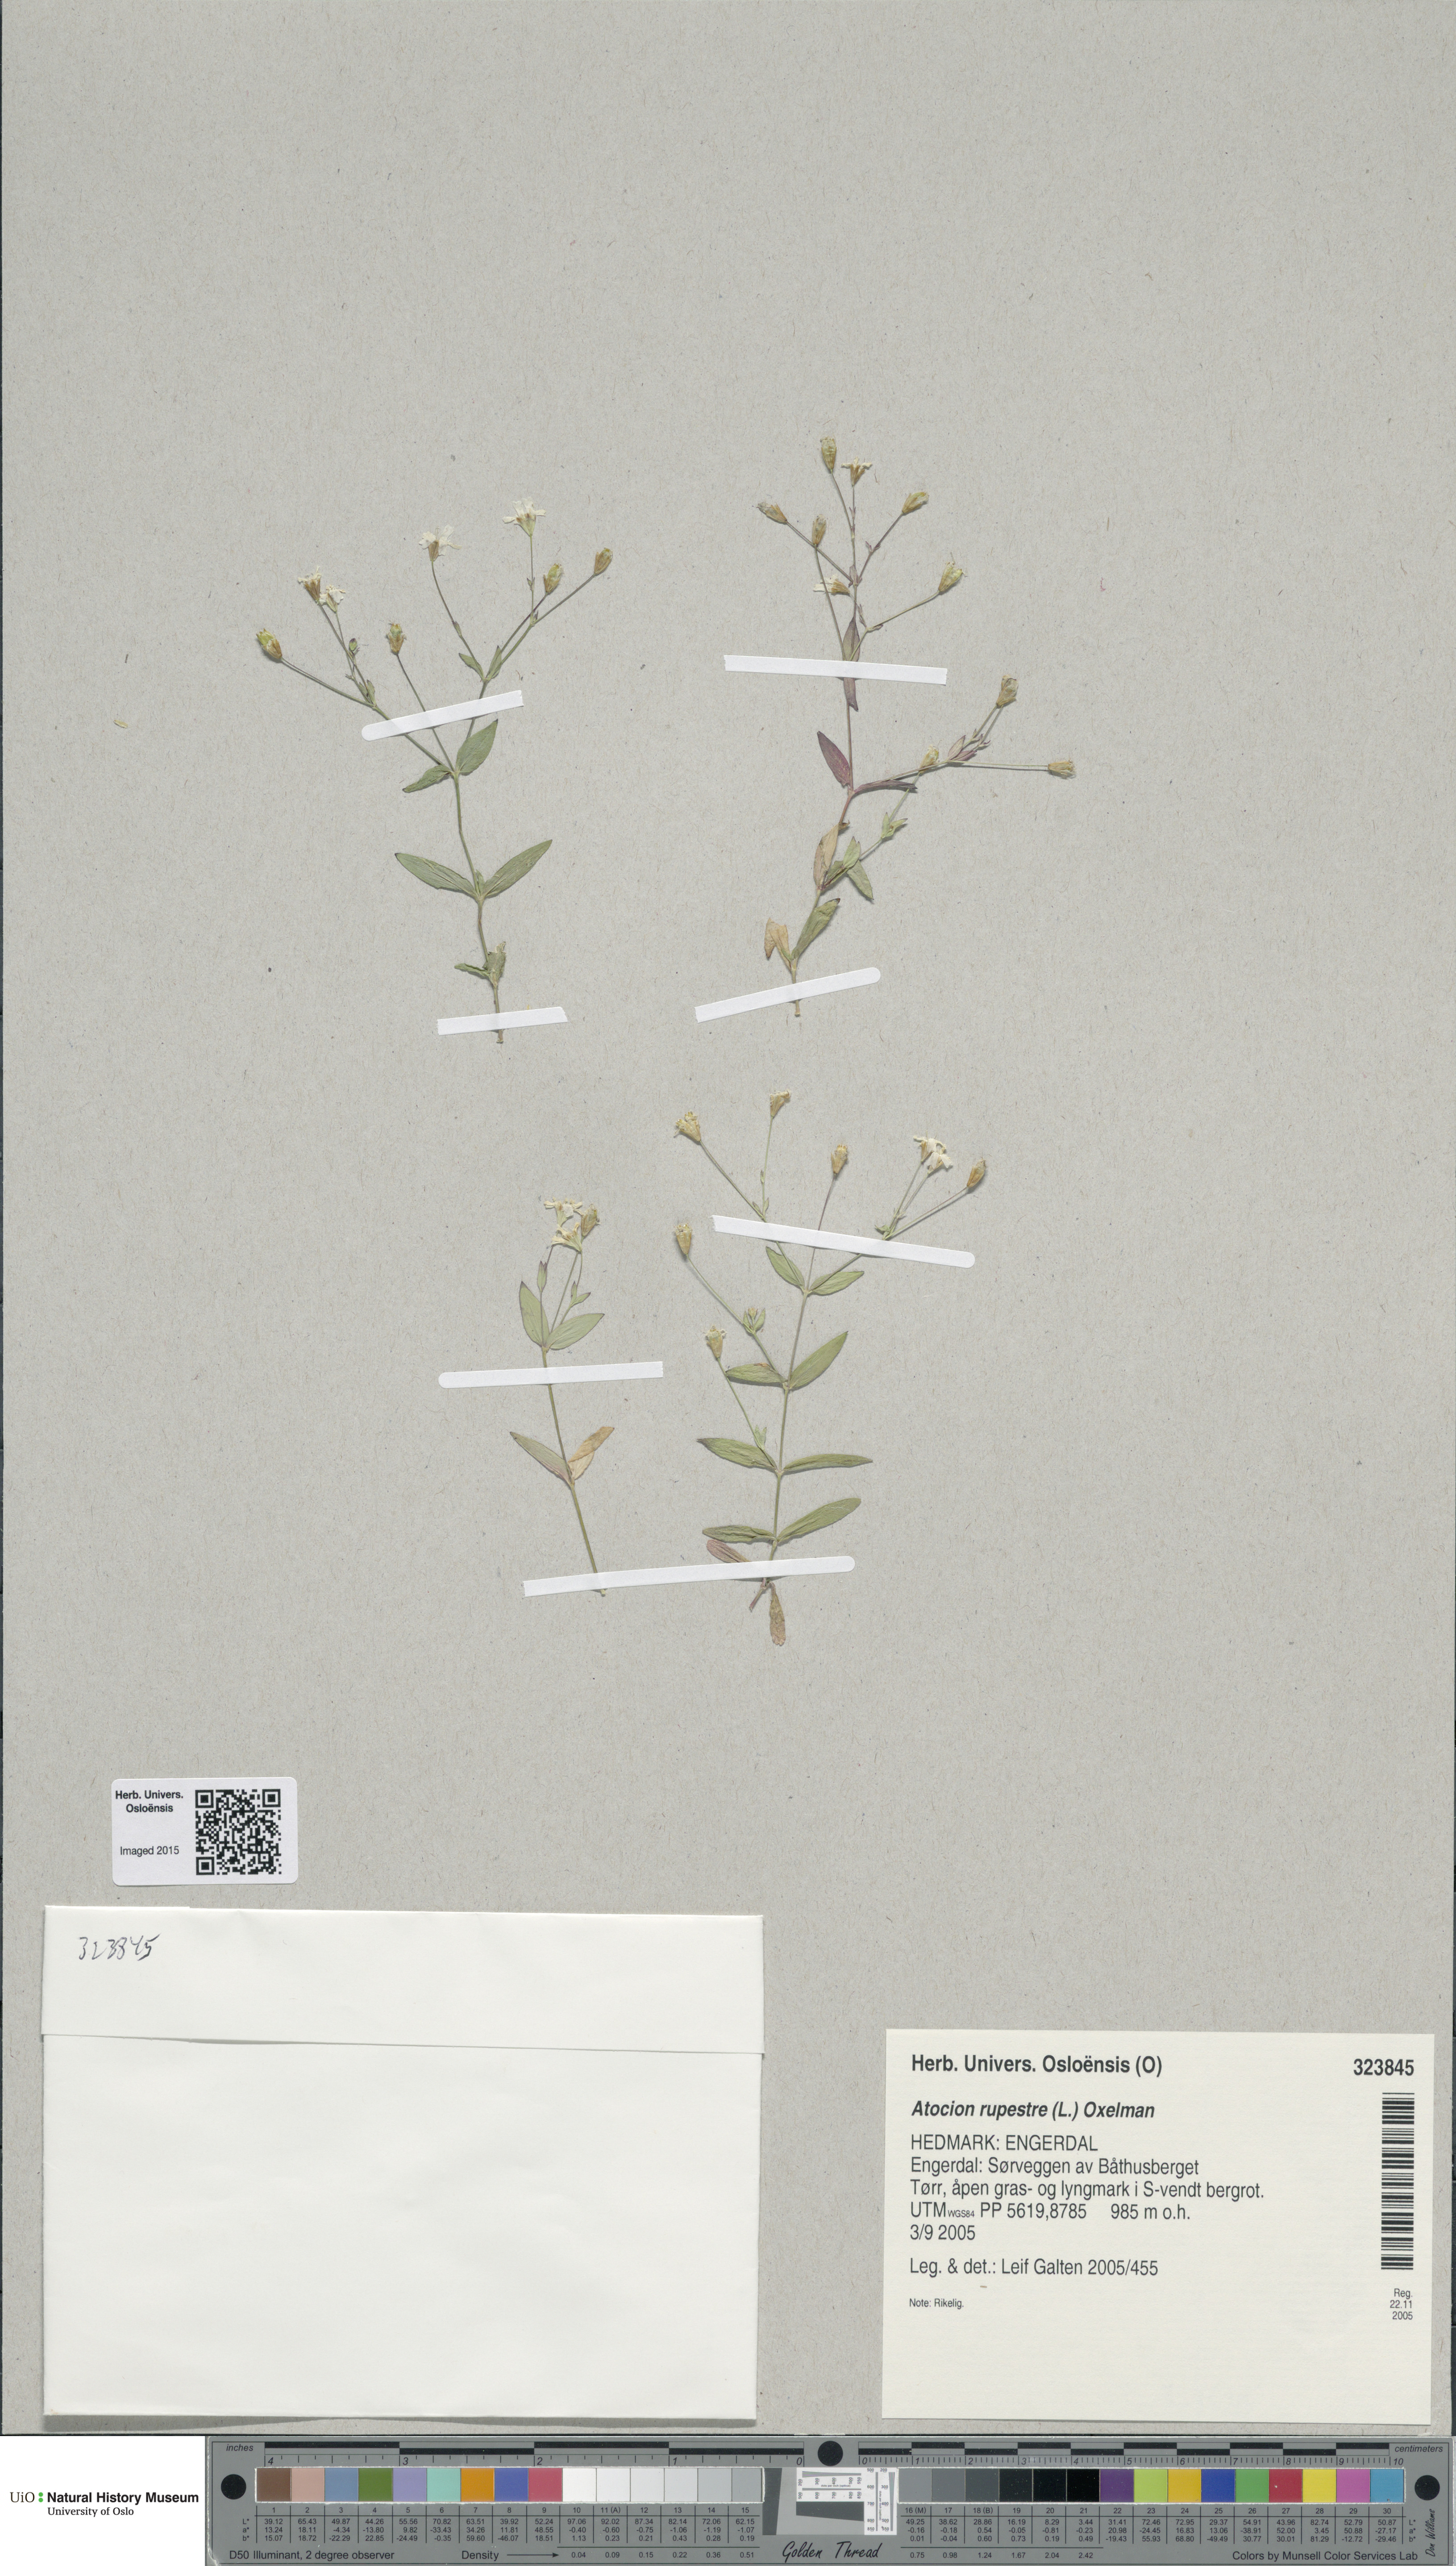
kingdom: Plantae
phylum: Tracheophyta
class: Magnoliopsida
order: Caryophyllales
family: Caryophyllaceae
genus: Atocion
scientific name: Atocion rupestre
